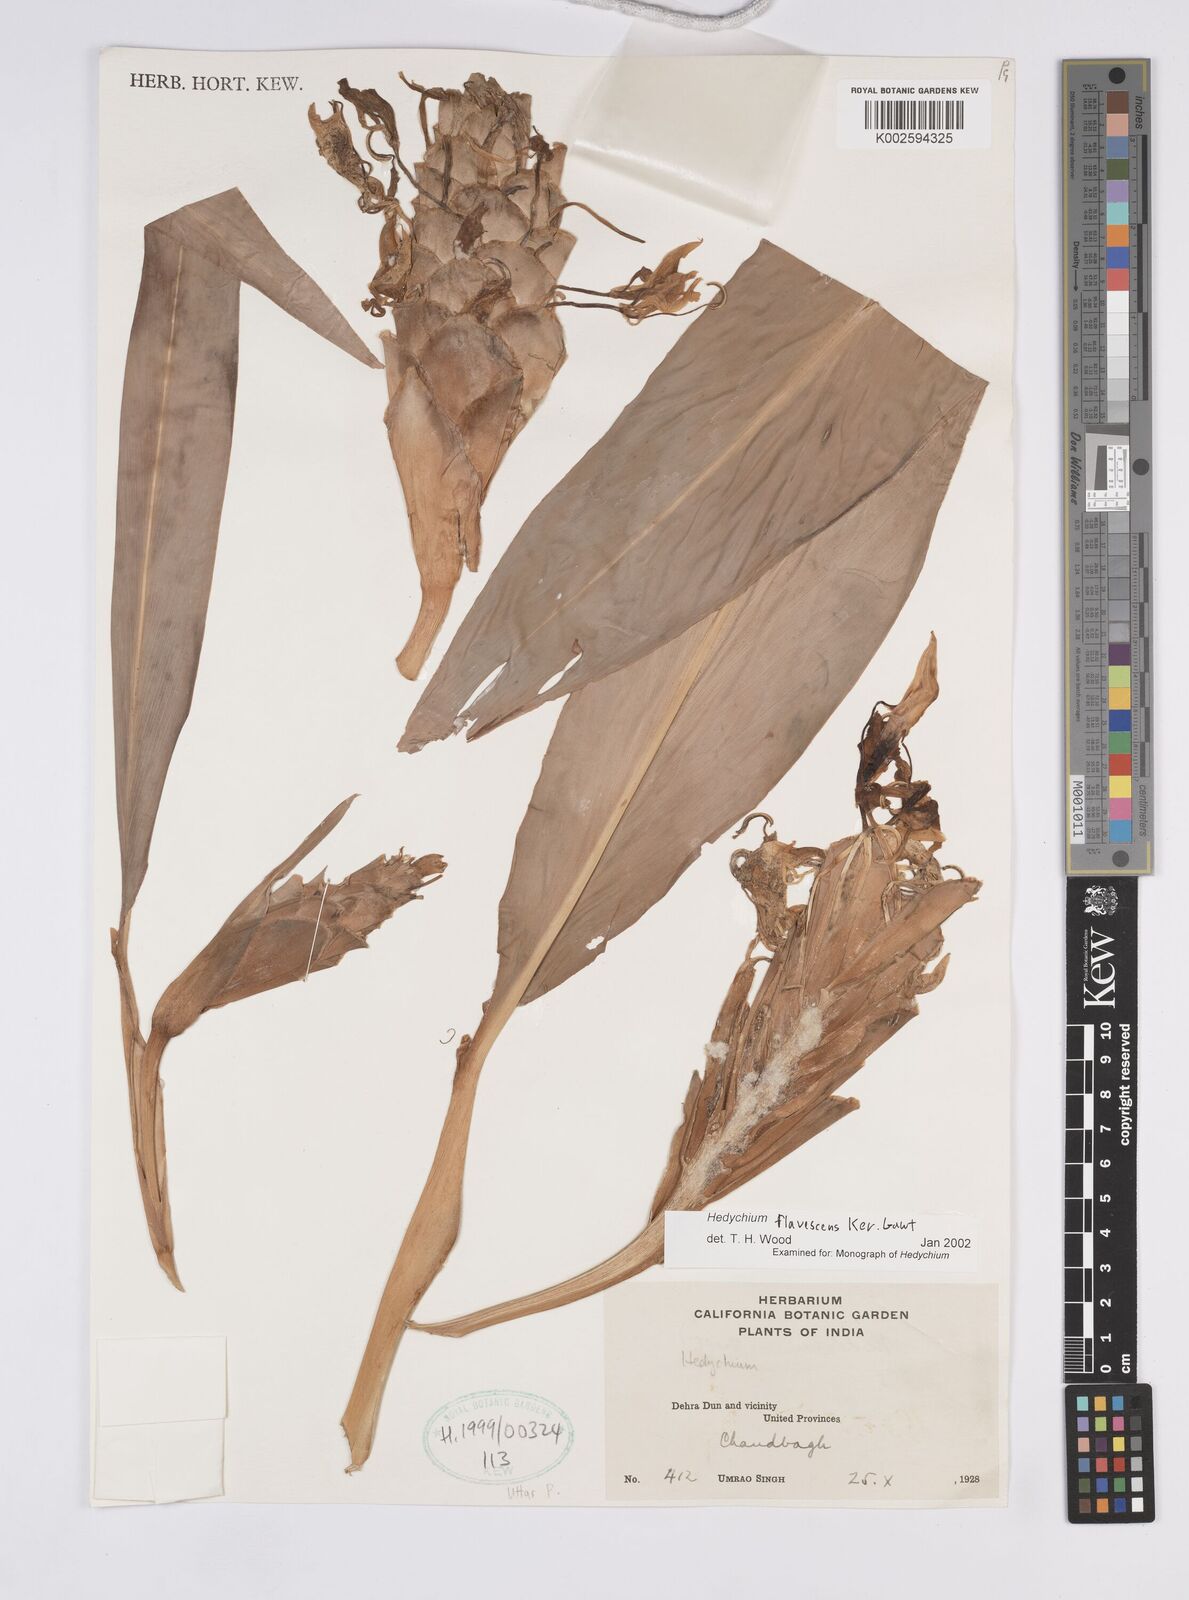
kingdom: Plantae
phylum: Tracheophyta
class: Liliopsida
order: Zingiberales
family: Zingiberaceae
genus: Hedychium
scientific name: Hedychium
